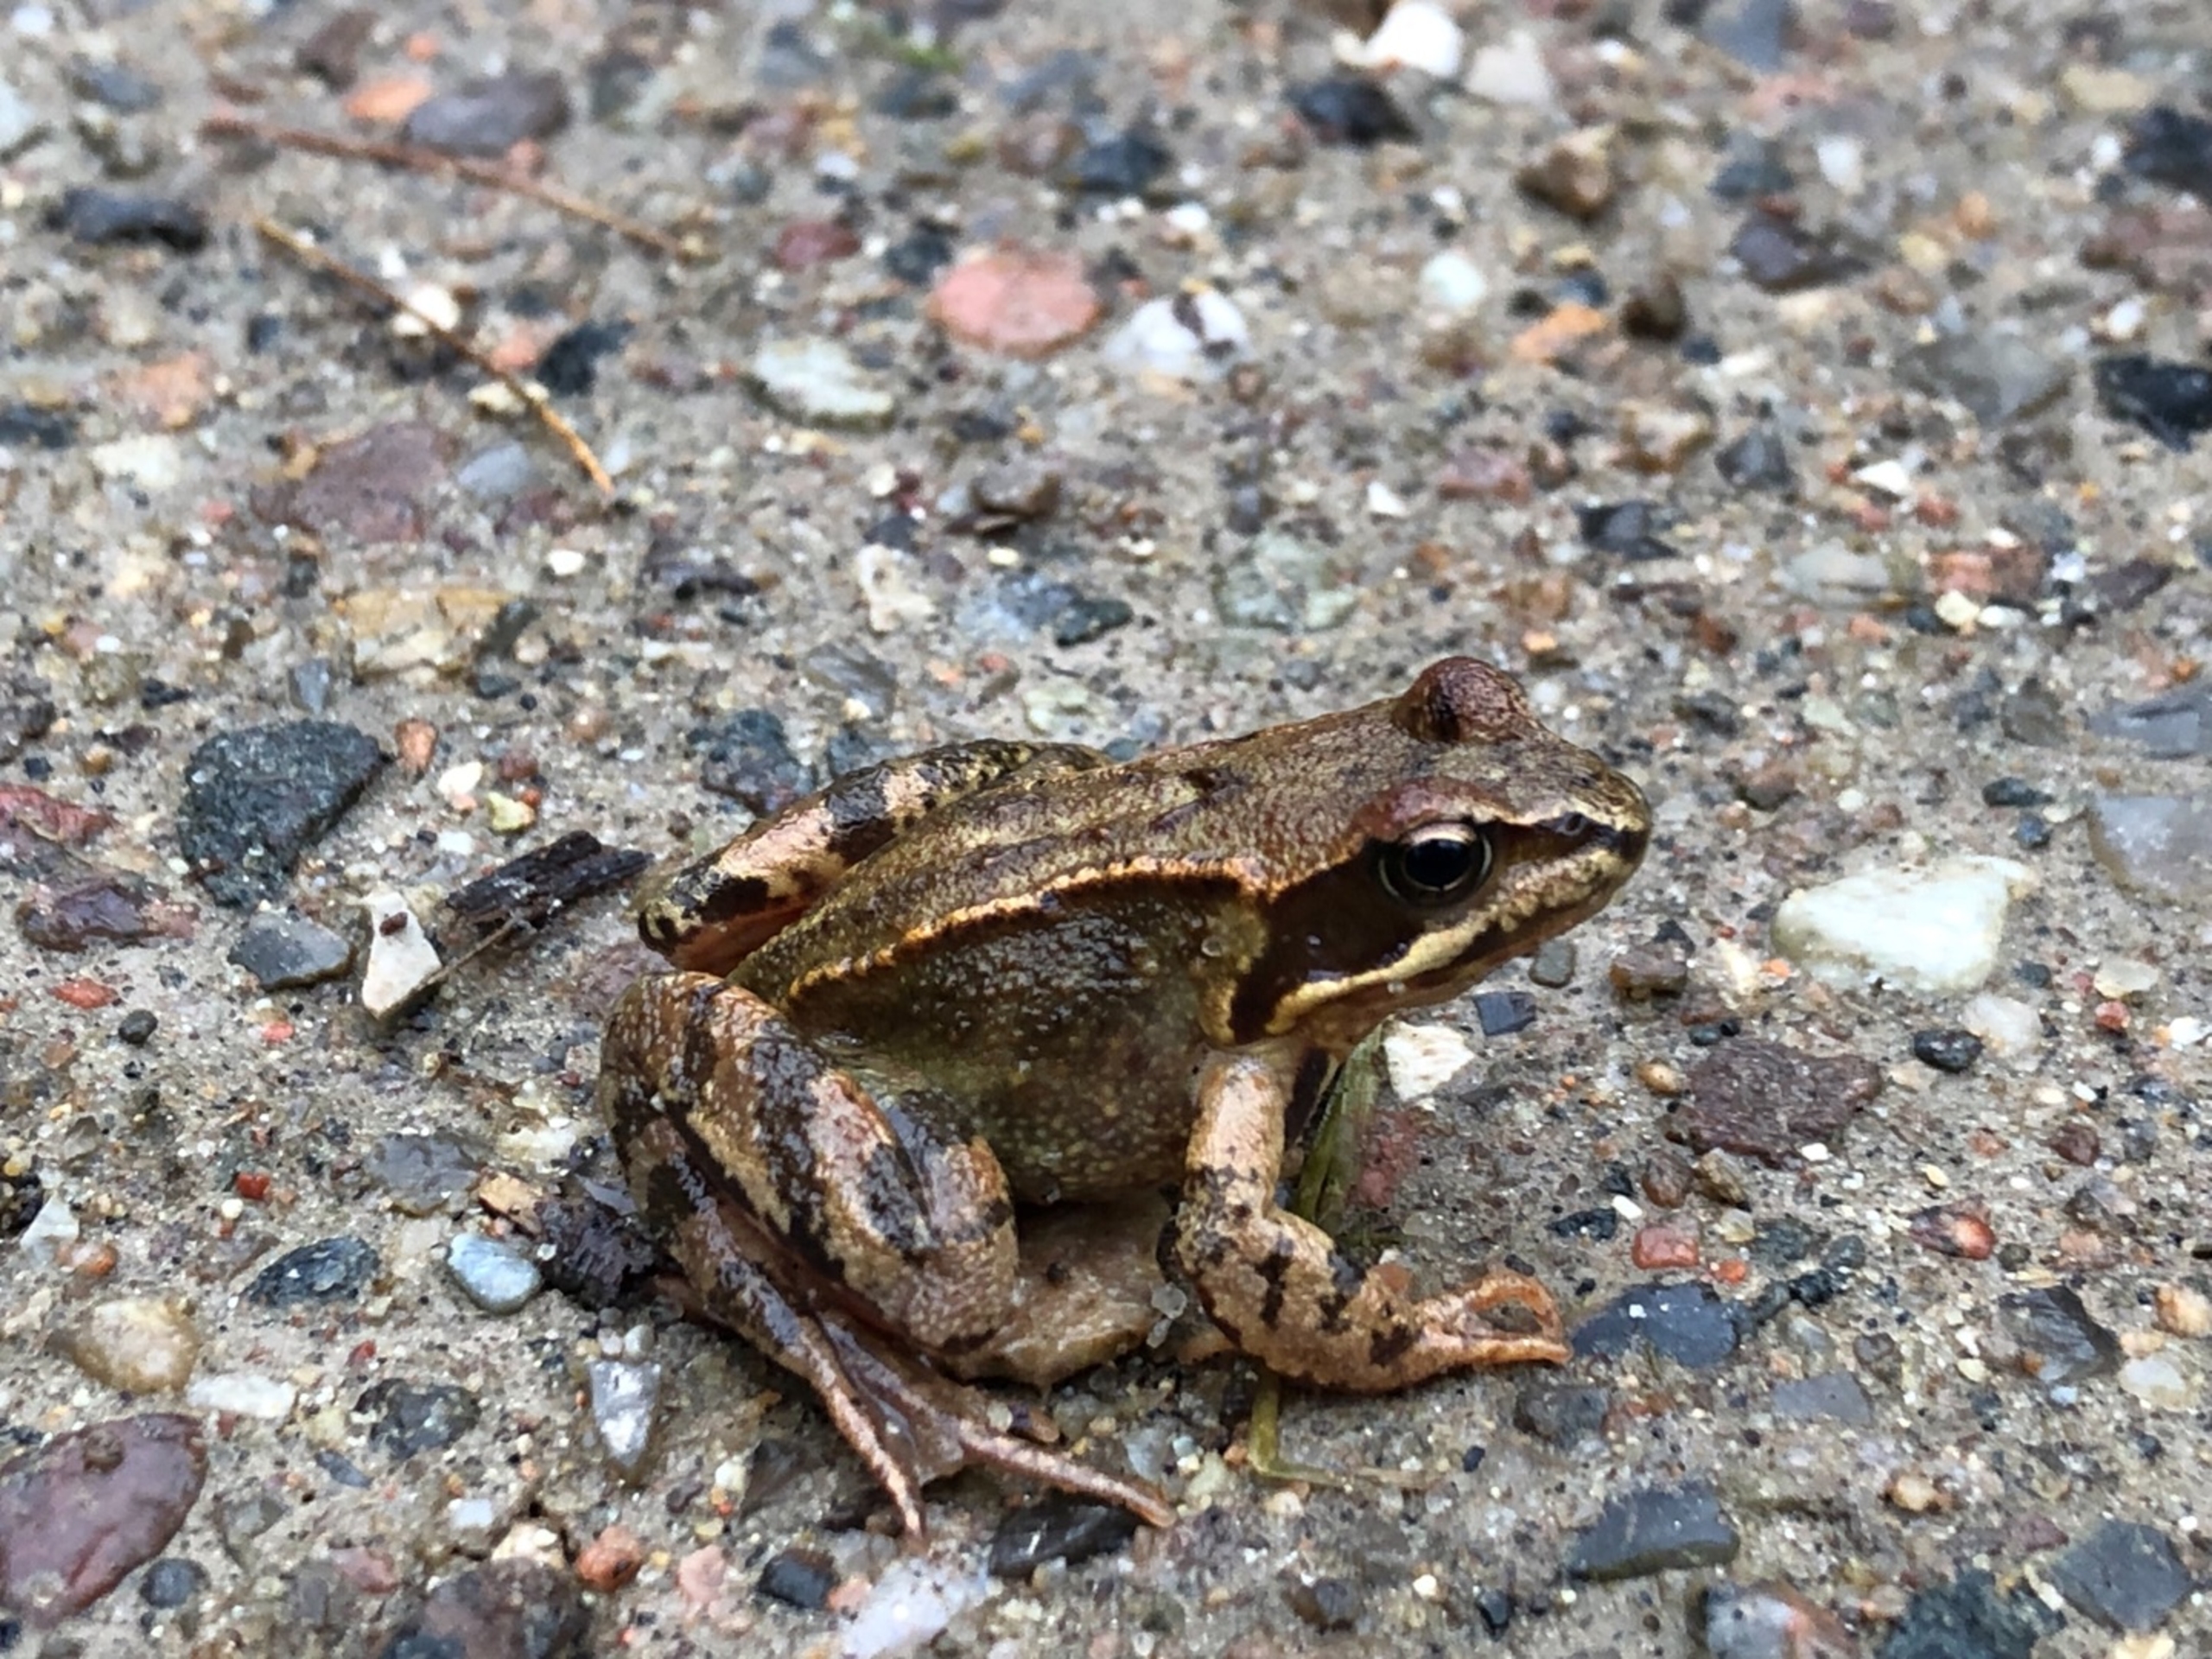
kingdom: Animalia
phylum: Chordata
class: Amphibia
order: Anura
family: Ranidae
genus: Rana
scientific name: Rana temporaria
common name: Butsnudet frø
